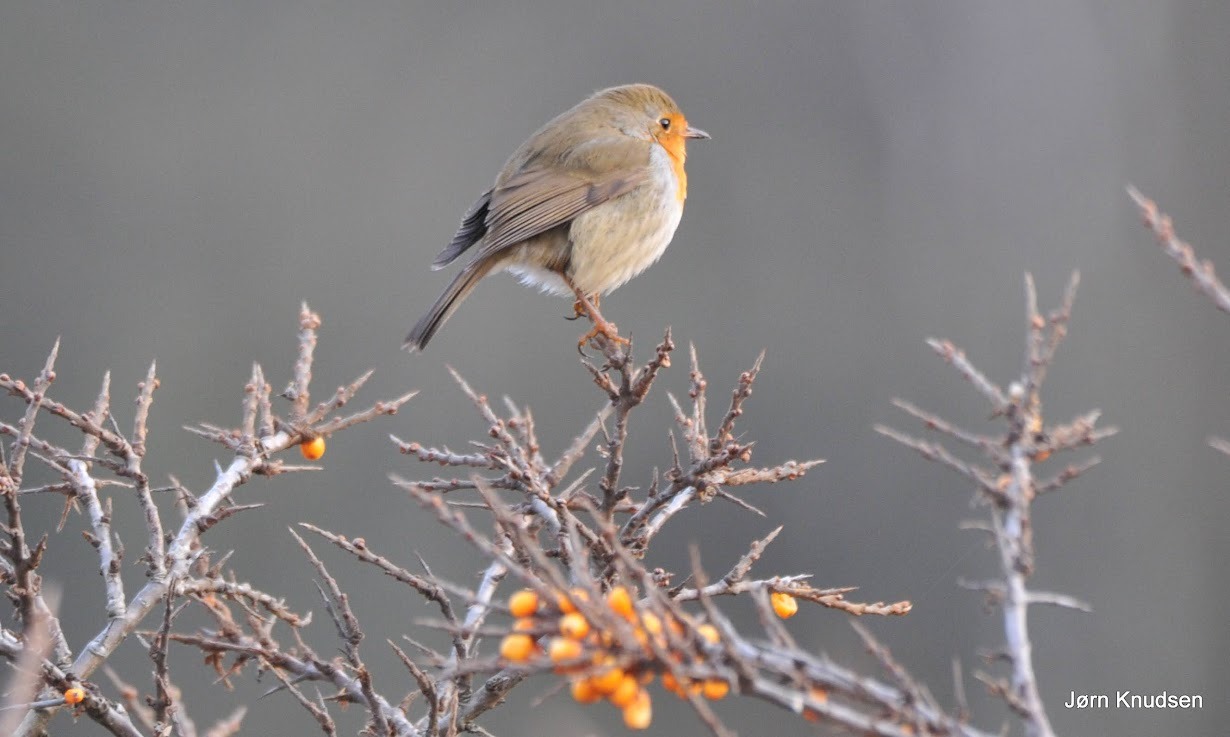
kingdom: Animalia
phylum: Chordata
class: Aves
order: Passeriformes
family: Muscicapidae
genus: Erithacus
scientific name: Erithacus rubecula
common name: Rødhals/rødkælk
